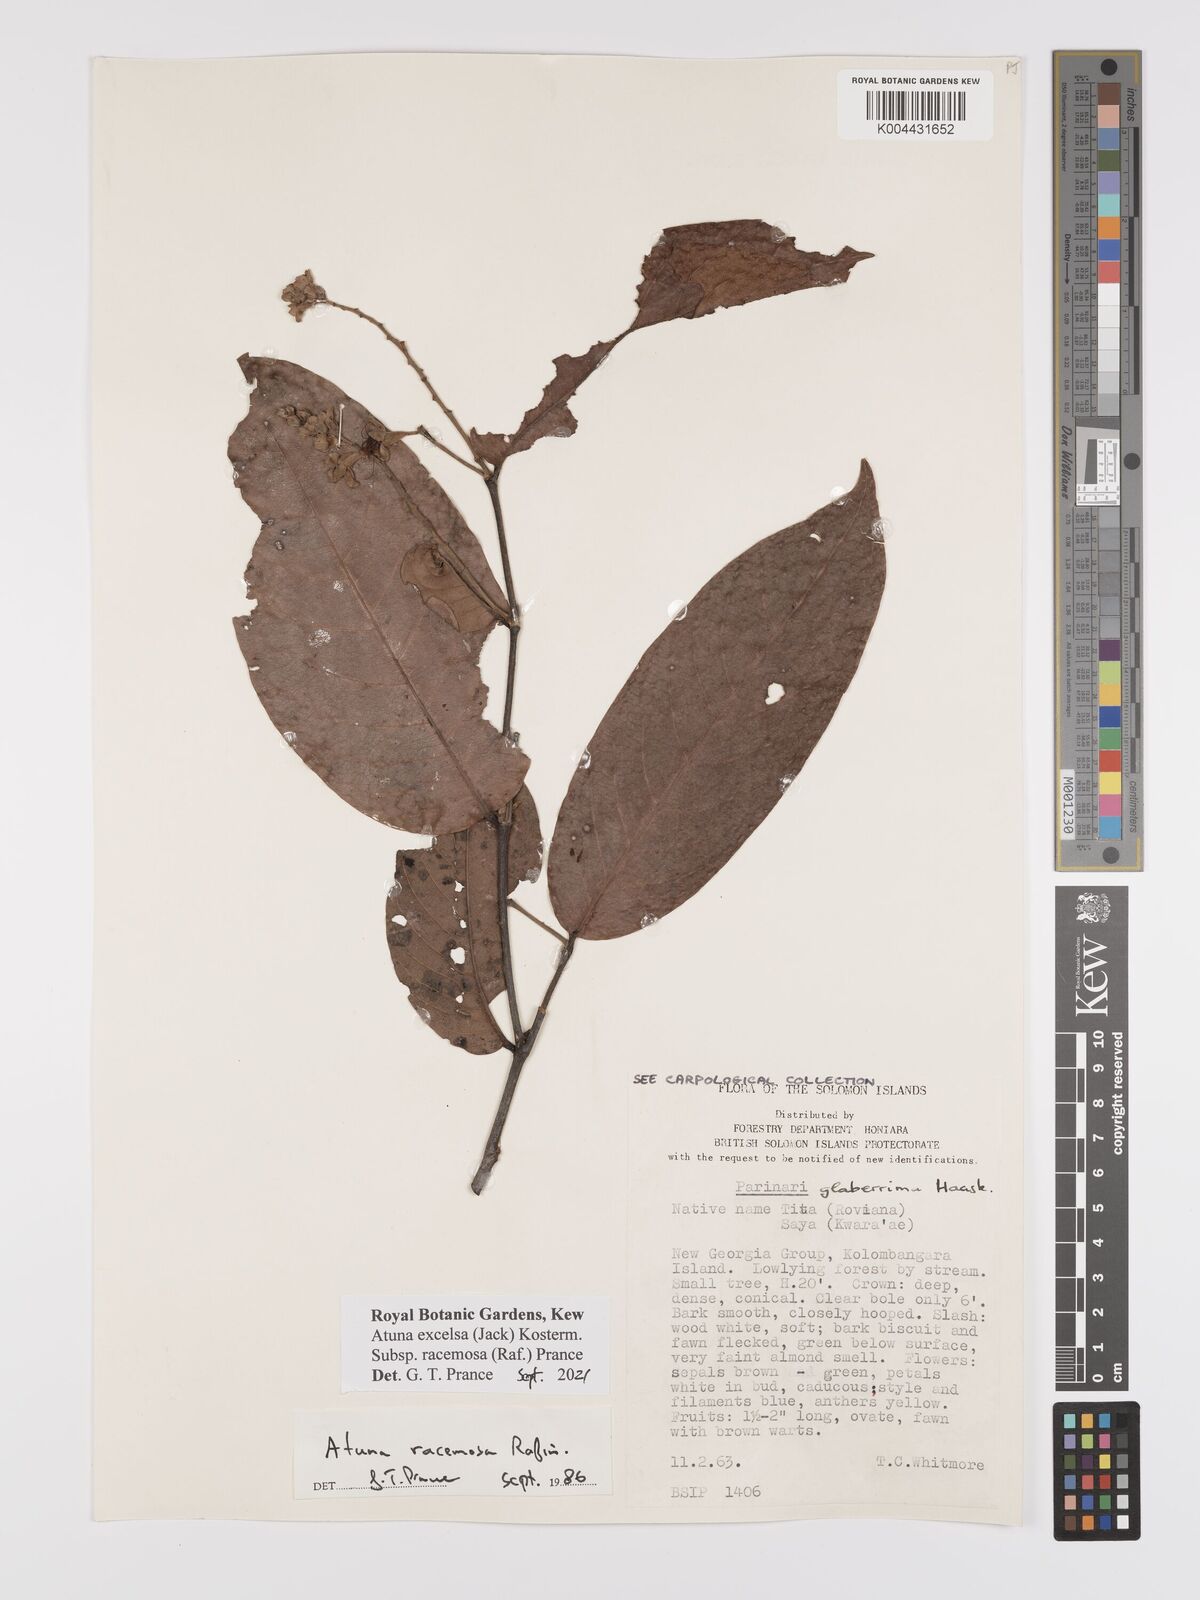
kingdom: Plantae
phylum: Tracheophyta
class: Magnoliopsida
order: Malpighiales
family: Chrysobalanaceae
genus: Atuna
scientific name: Atuna excelsa
